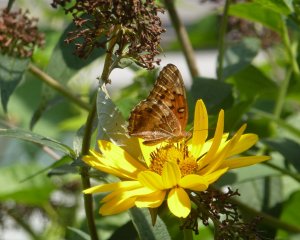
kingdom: Animalia
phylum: Arthropoda
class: Insecta
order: Lepidoptera
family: Nymphalidae
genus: Euptoieta
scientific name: Euptoieta claudia
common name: Variegated Fritillary
